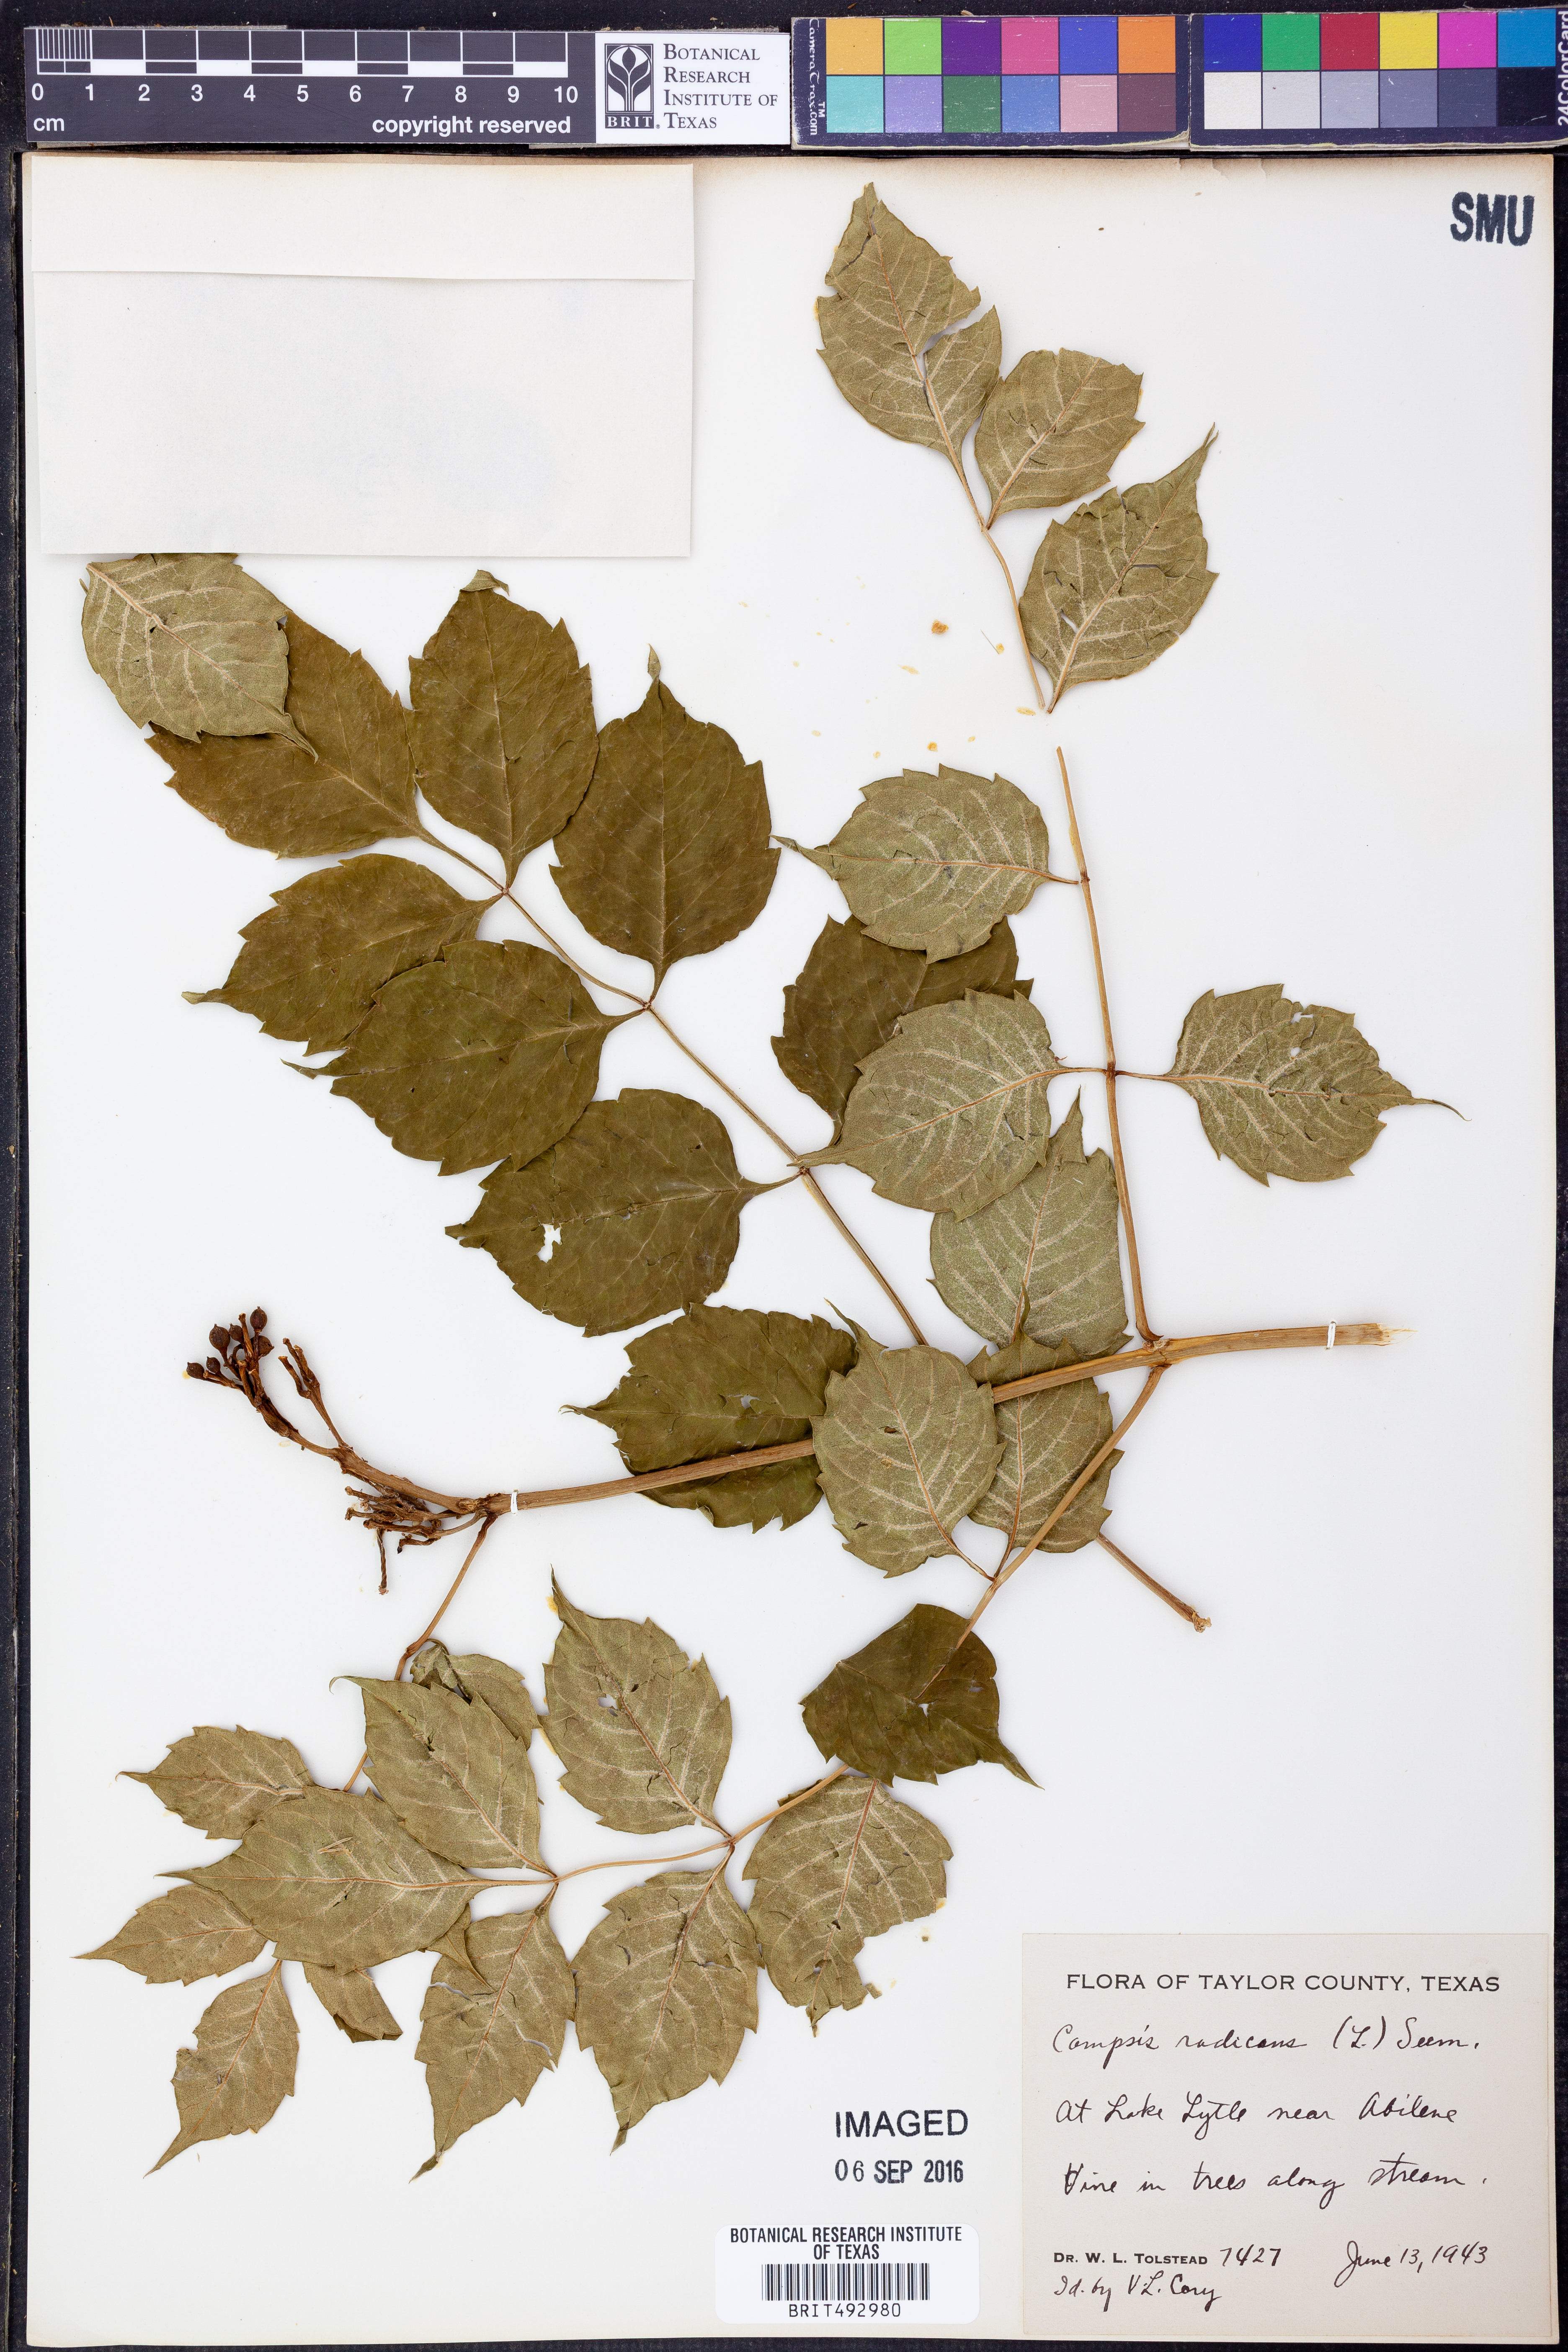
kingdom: Plantae
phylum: Tracheophyta
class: Magnoliopsida
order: Lamiales
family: Bignoniaceae
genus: Campsis
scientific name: Campsis radicans
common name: Trumpet-creeper
